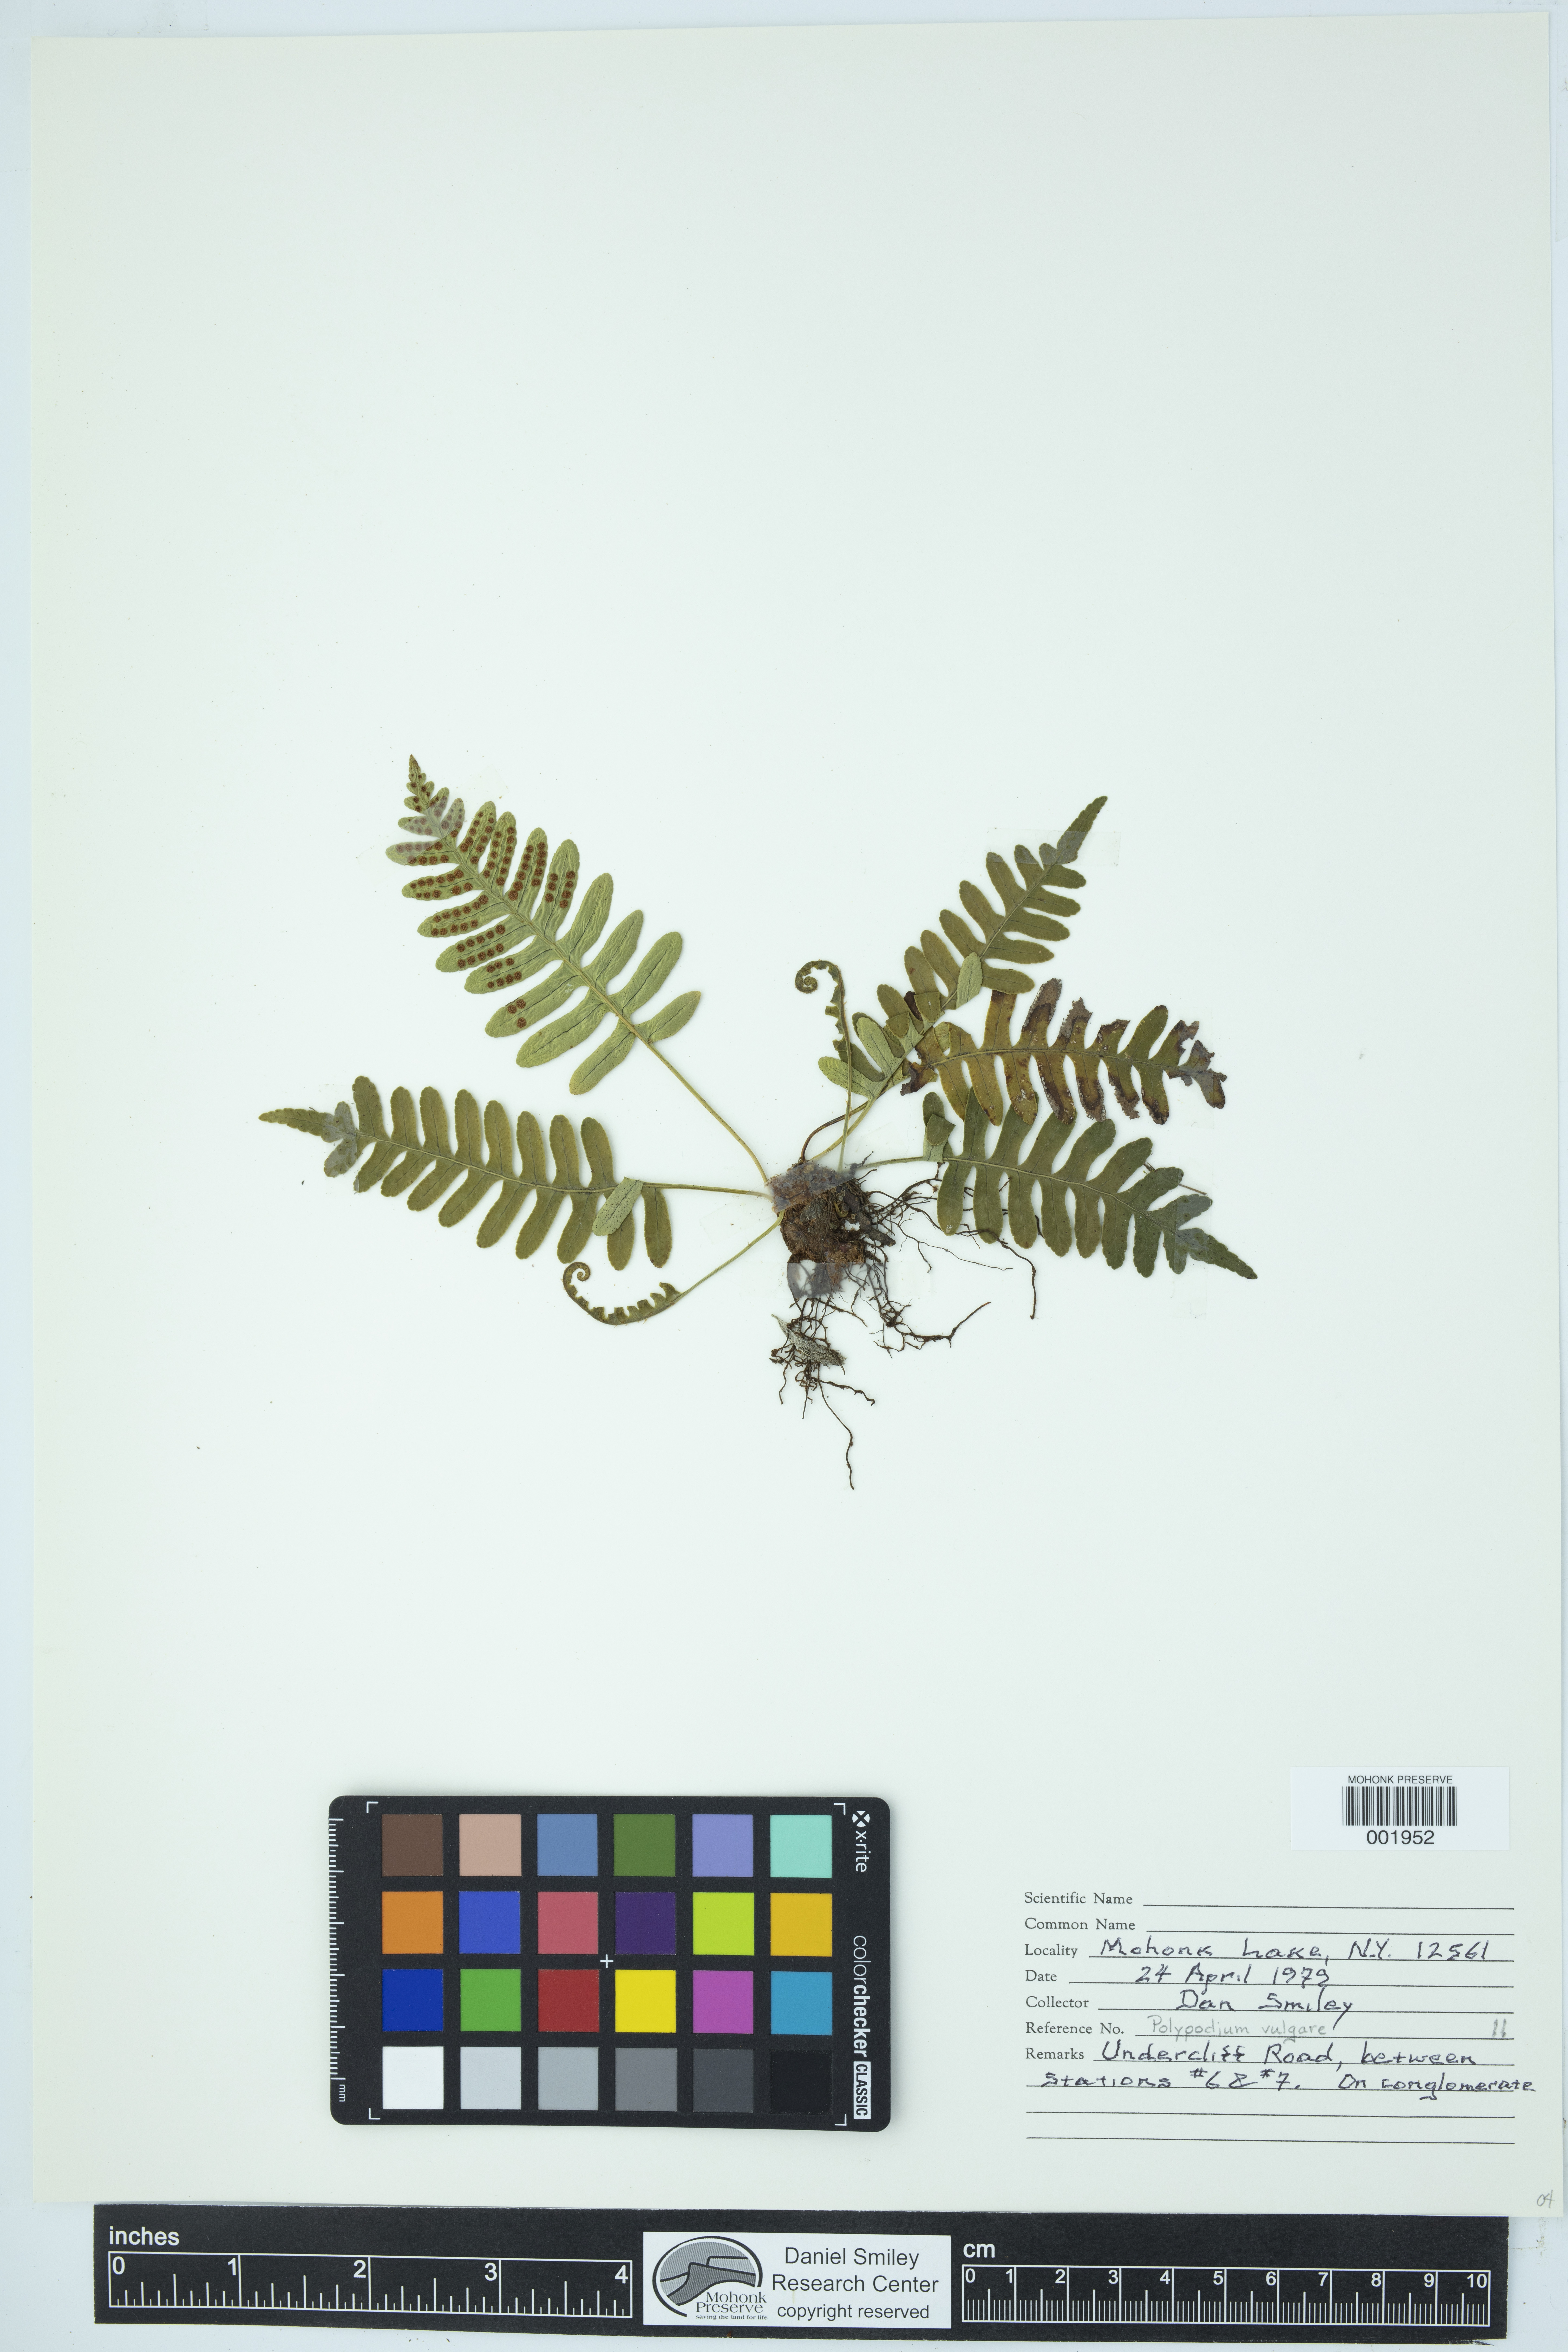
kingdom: Plantae
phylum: Tracheophyta
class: Polypodiopsida
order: Polypodiales
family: Polypodiaceae
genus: Polypodium
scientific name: Polypodium virginianum
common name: American wall fern
